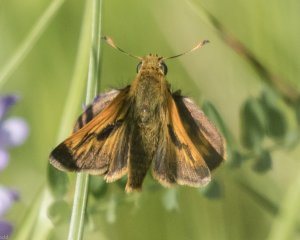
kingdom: Animalia
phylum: Arthropoda
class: Insecta
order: Lepidoptera
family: Hesperiidae
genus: Polites
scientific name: Polites
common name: Long Dash Skipper
